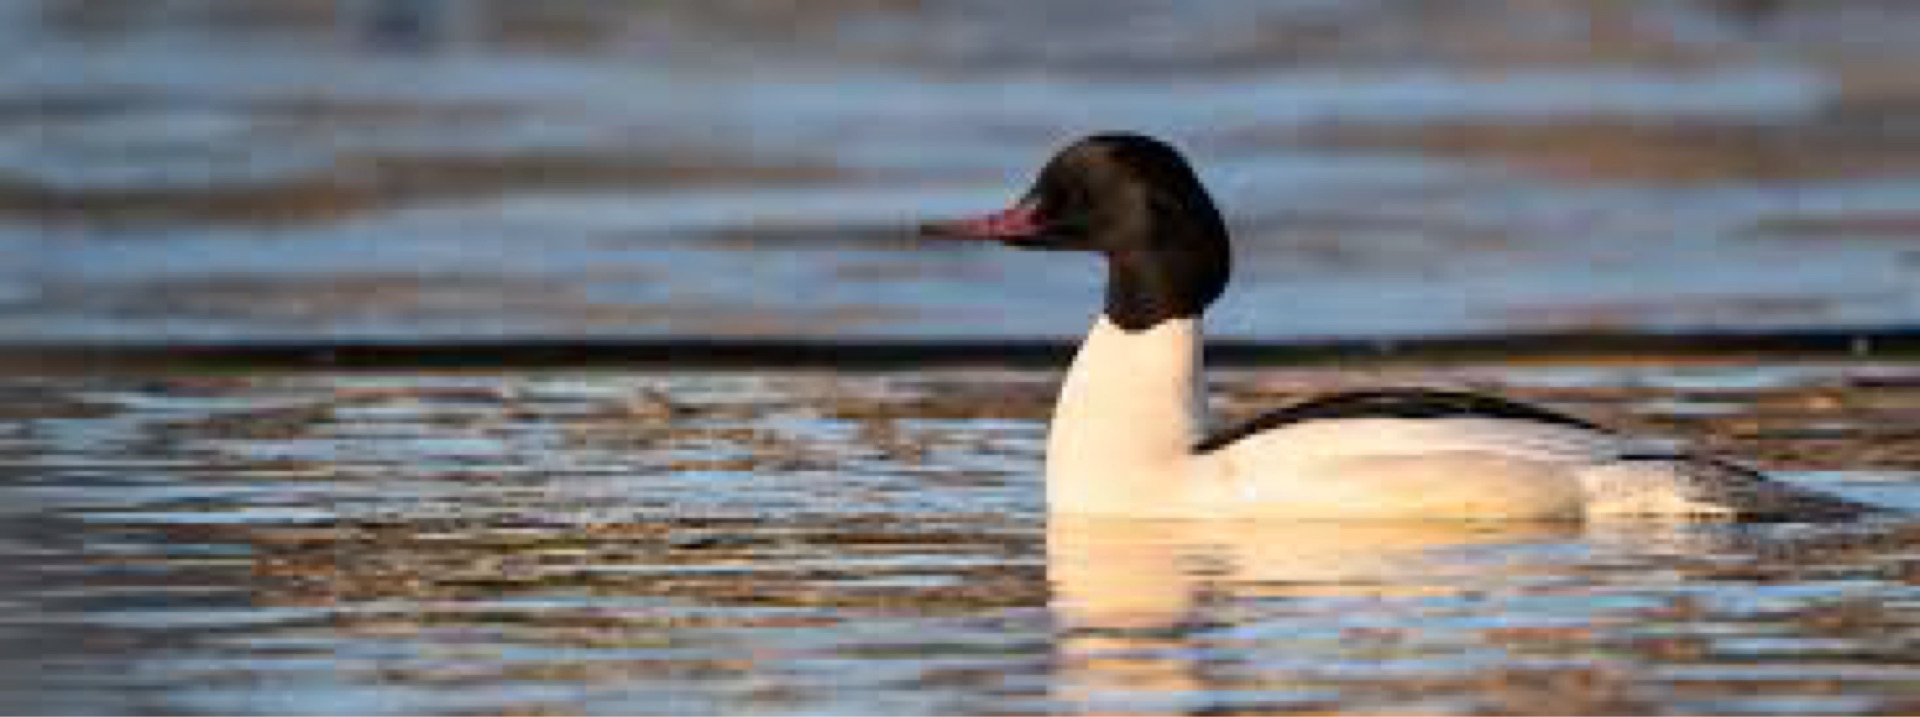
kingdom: Animalia
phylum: Chordata
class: Aves
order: Anseriformes
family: Anatidae
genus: Mergus
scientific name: Mergus merganser
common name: Stor skallesluger
